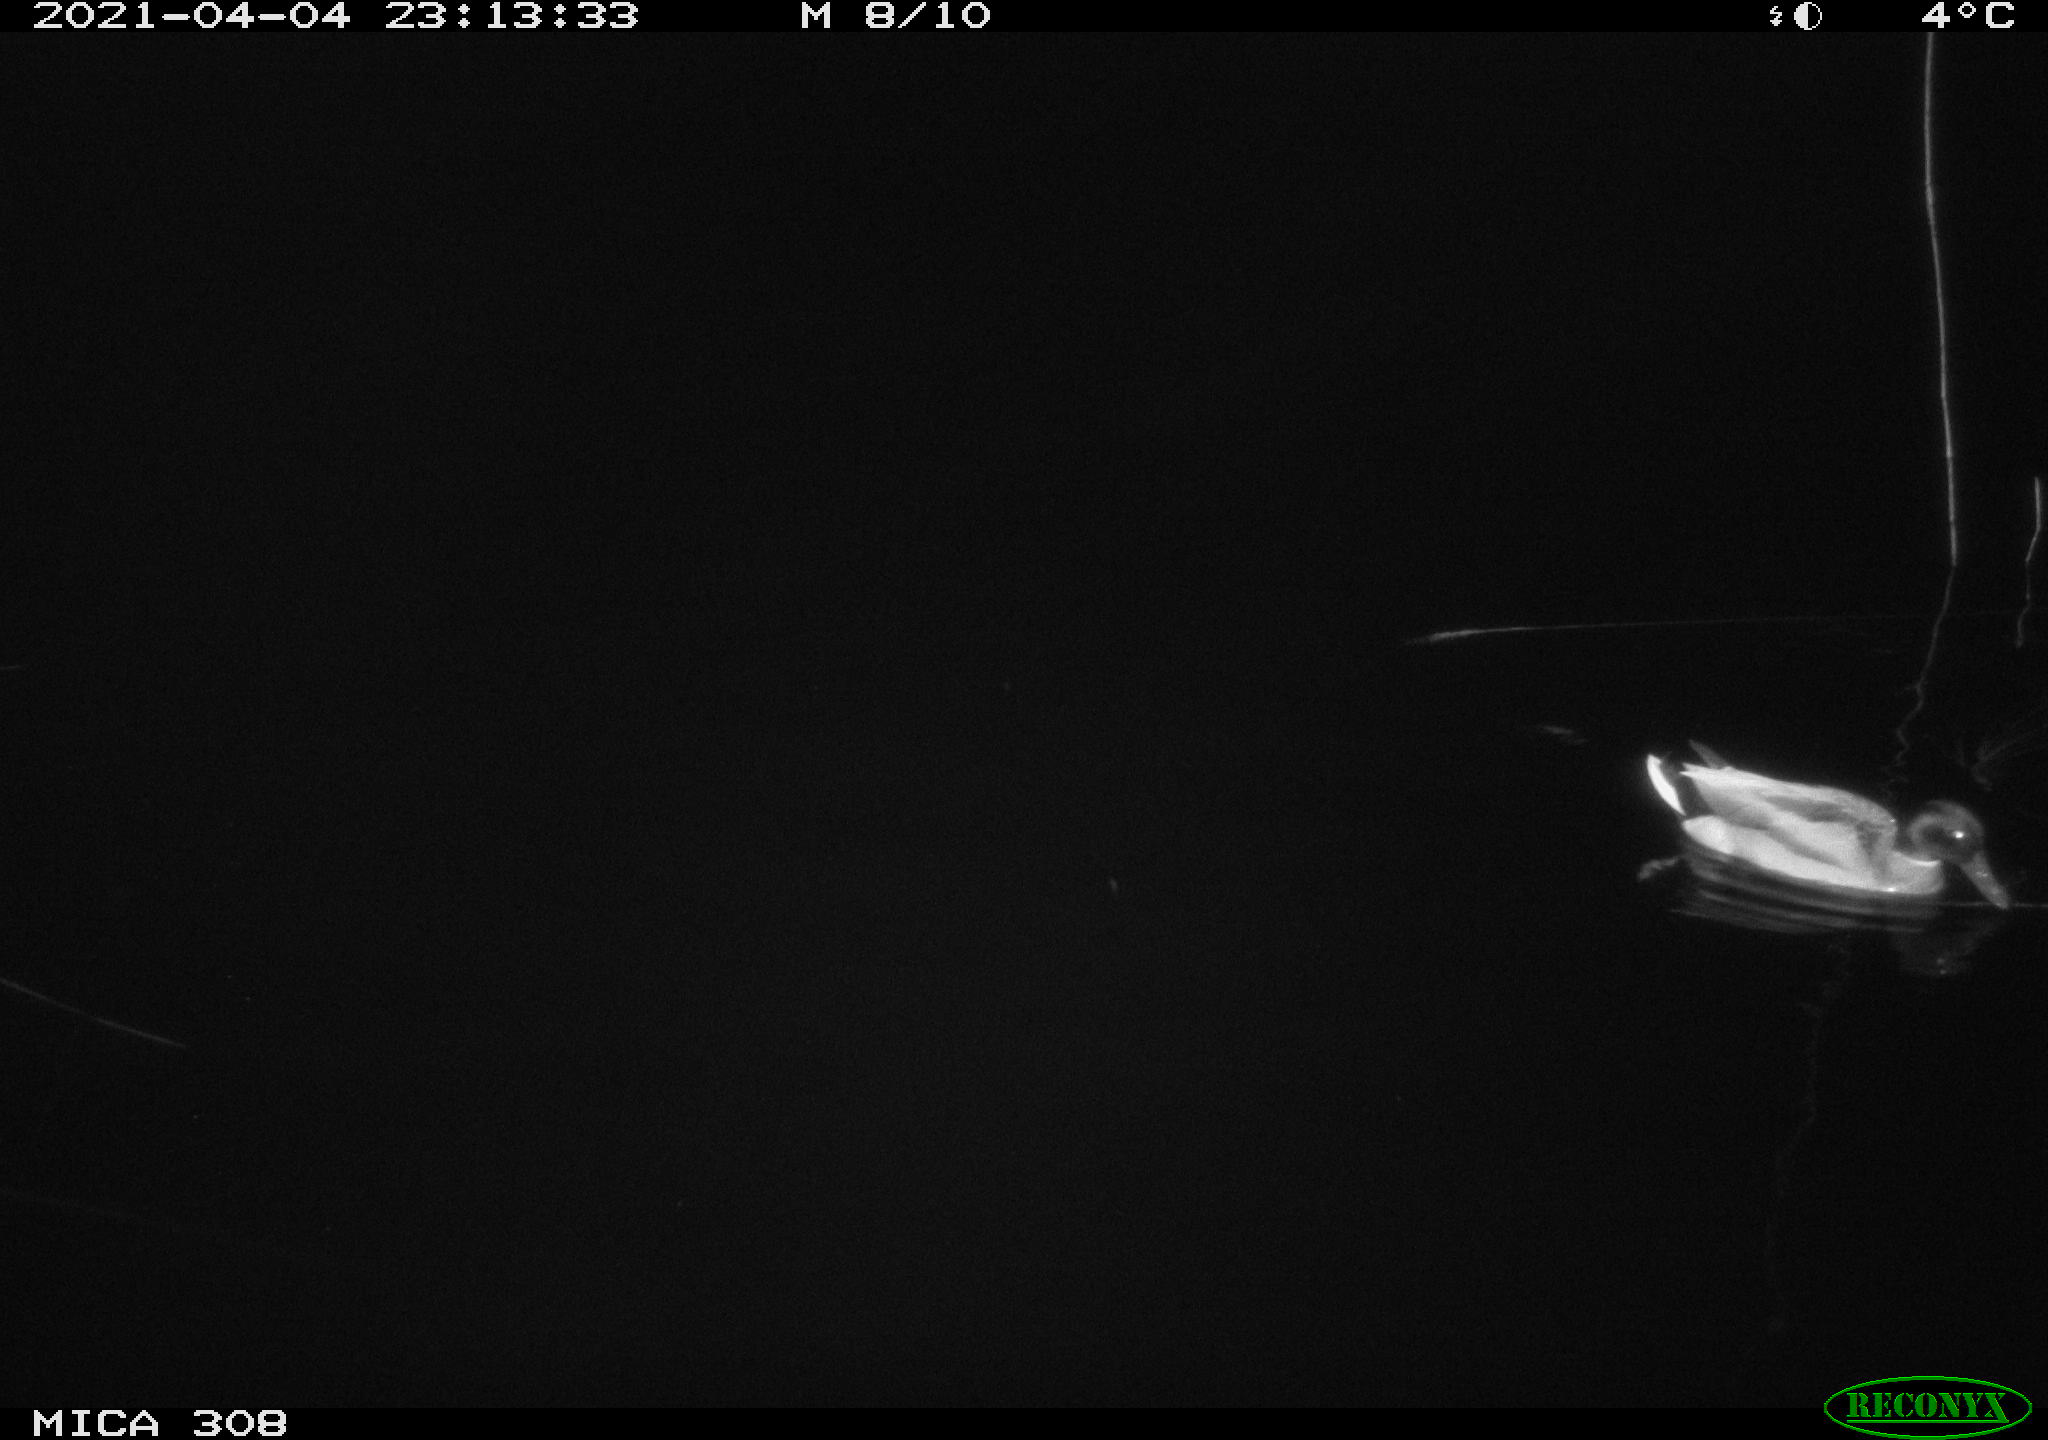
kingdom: Animalia
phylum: Chordata
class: Aves
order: Gruiformes
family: Rallidae
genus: Gallinula
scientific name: Gallinula chloropus
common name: Common moorhen
